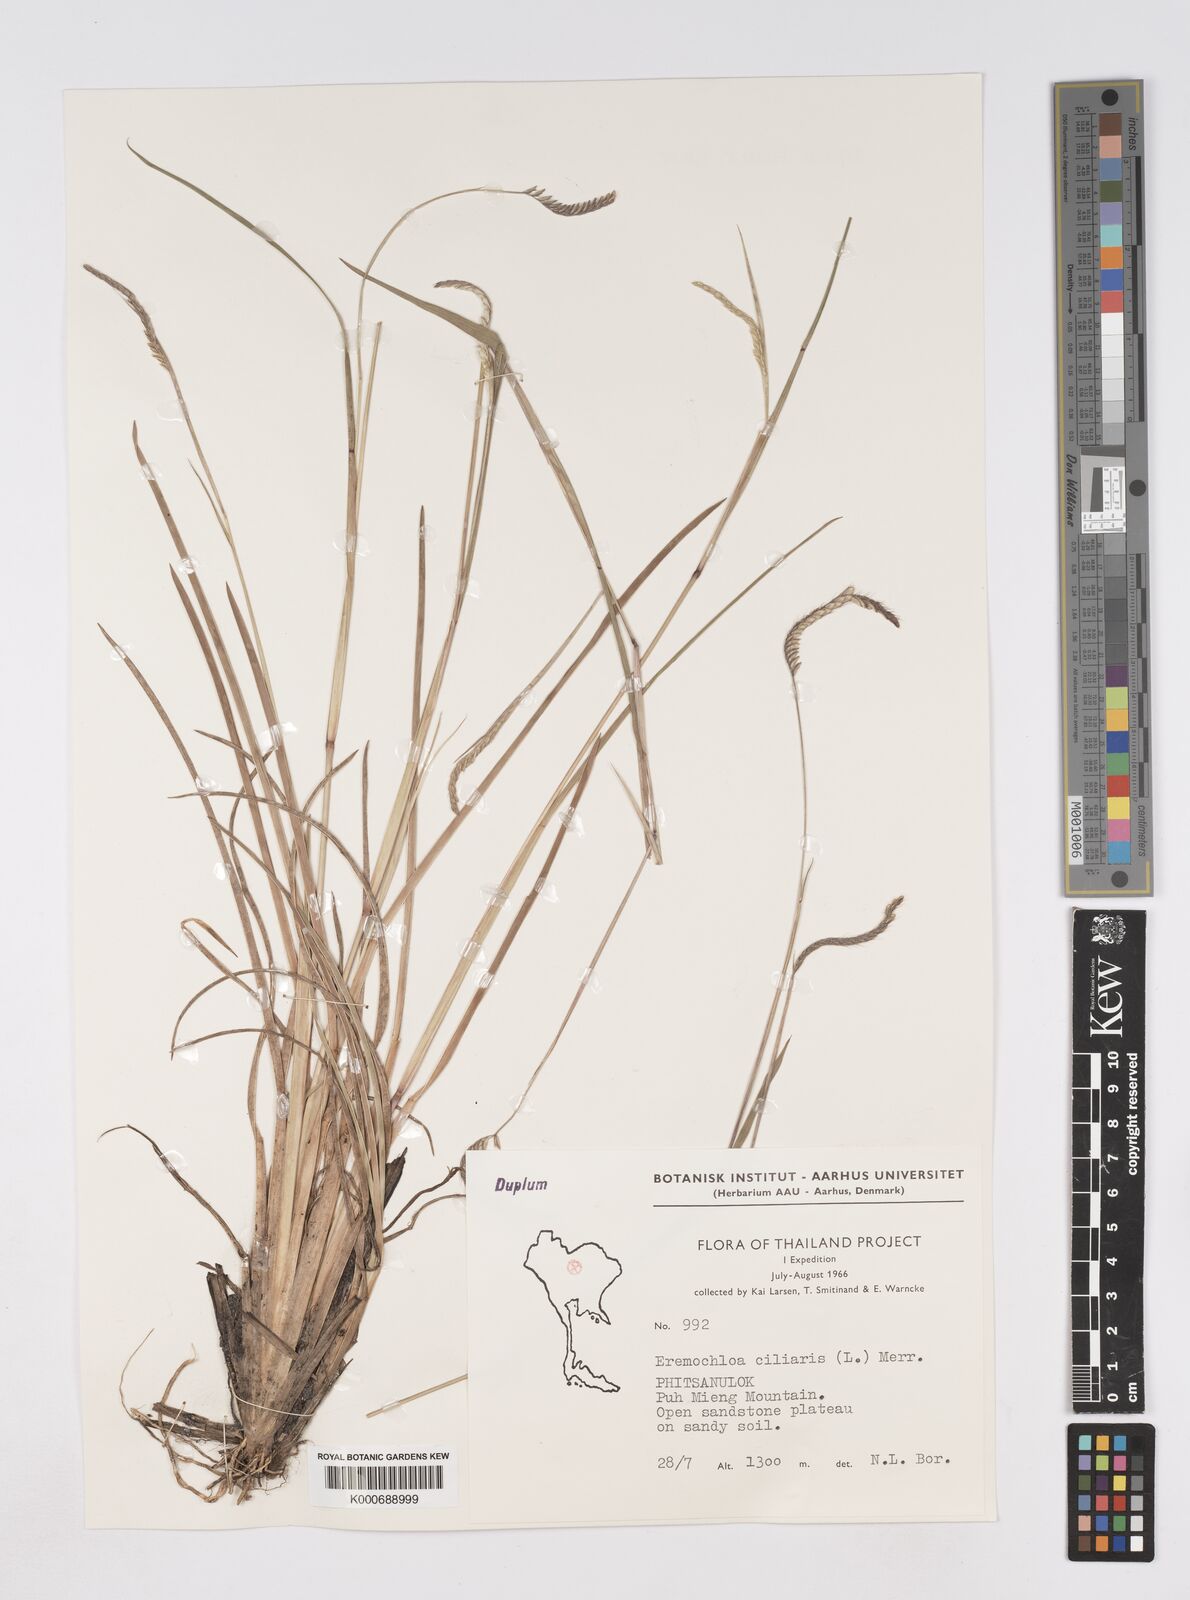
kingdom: Plantae
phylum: Tracheophyta
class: Liliopsida
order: Poales
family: Poaceae
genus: Eremochloa
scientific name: Eremochloa ciliaris
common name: Fringed centipede grass
